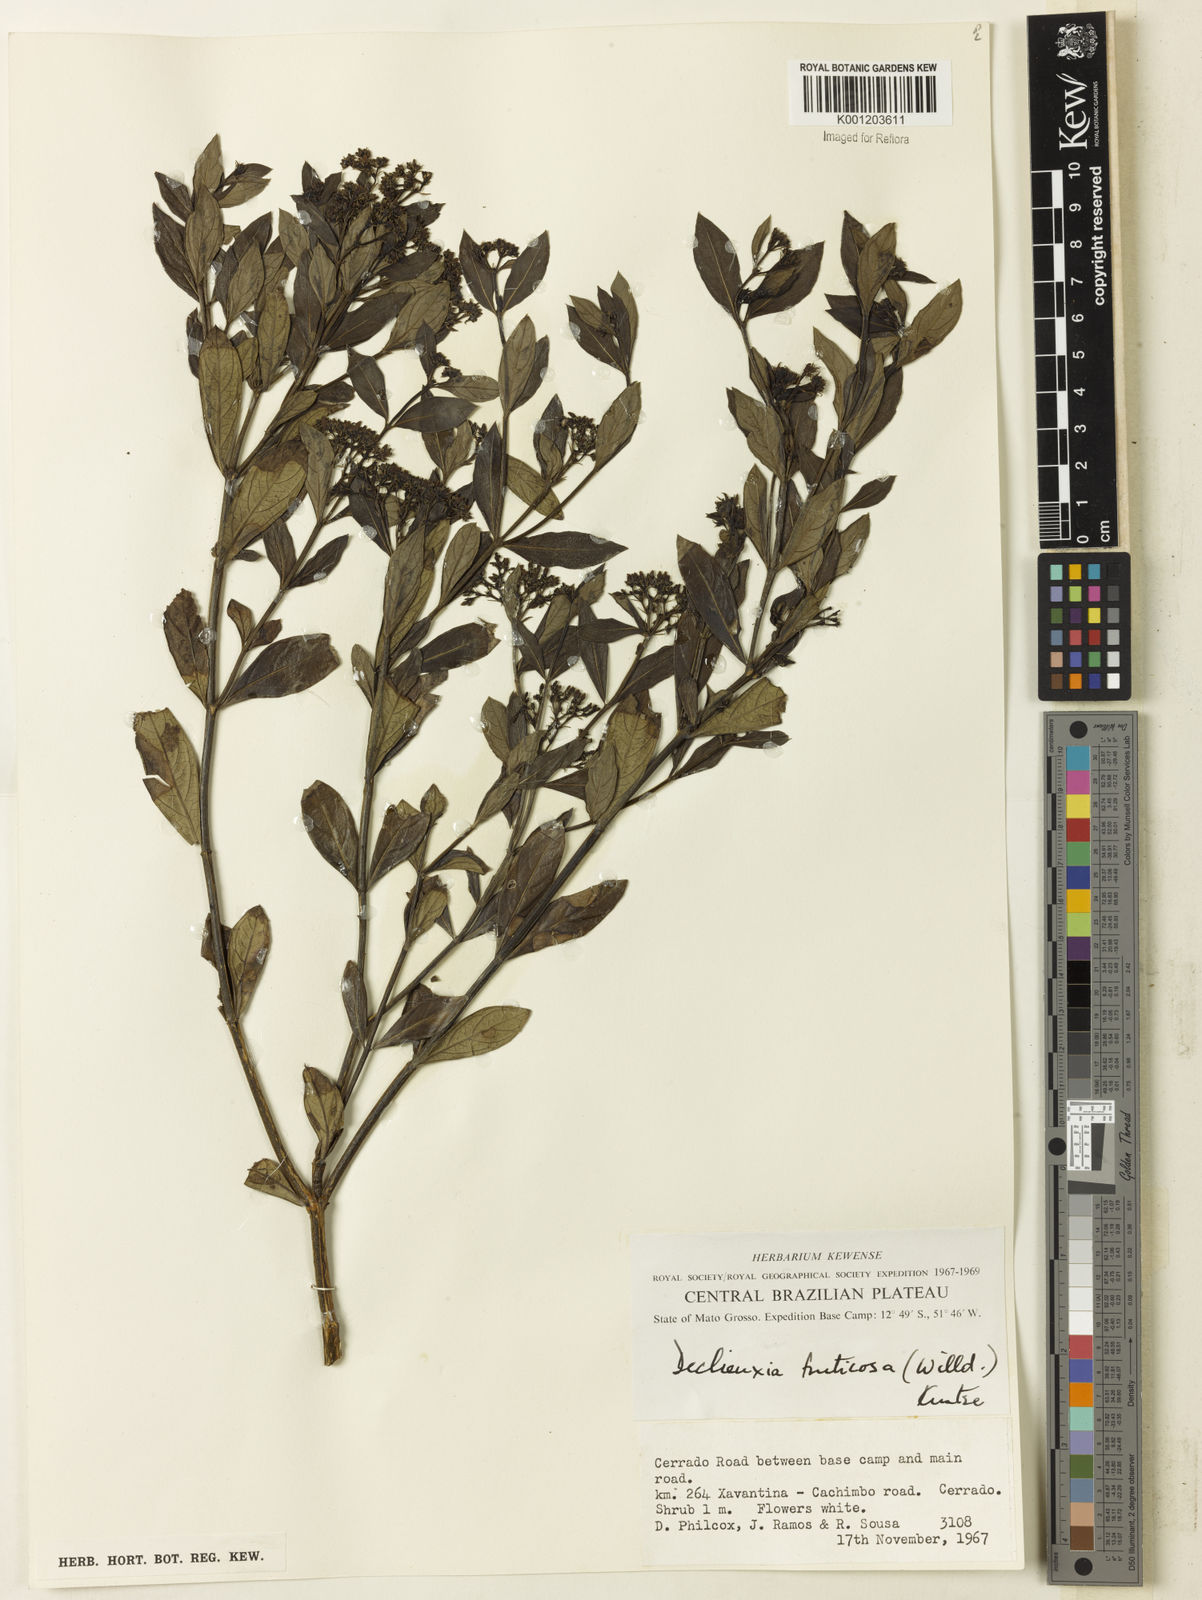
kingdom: Plantae
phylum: Tracheophyta
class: Magnoliopsida
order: Gentianales
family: Rubiaceae
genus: Declieuxia
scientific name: Declieuxia fruticosa
